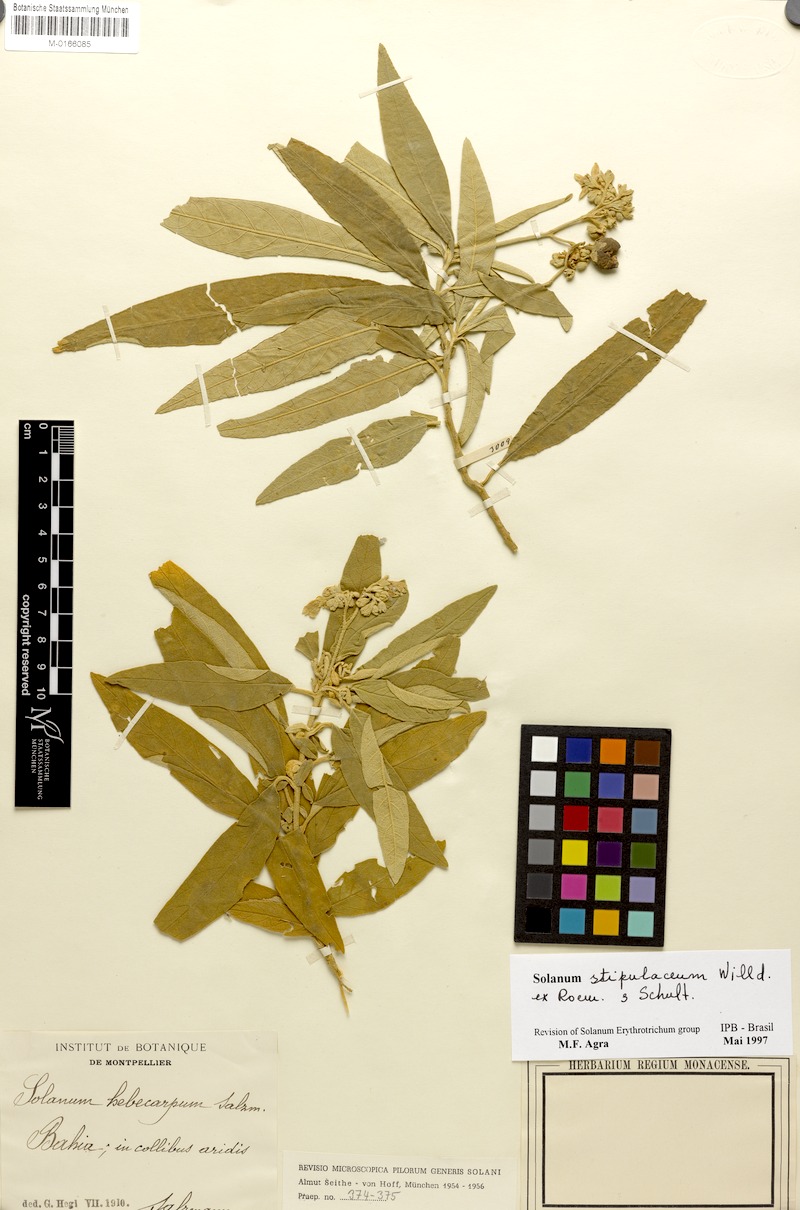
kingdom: Plantae
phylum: Tracheophyta
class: Magnoliopsida
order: Solanales
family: Solanaceae
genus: Solanum
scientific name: Solanum stipulaceum
